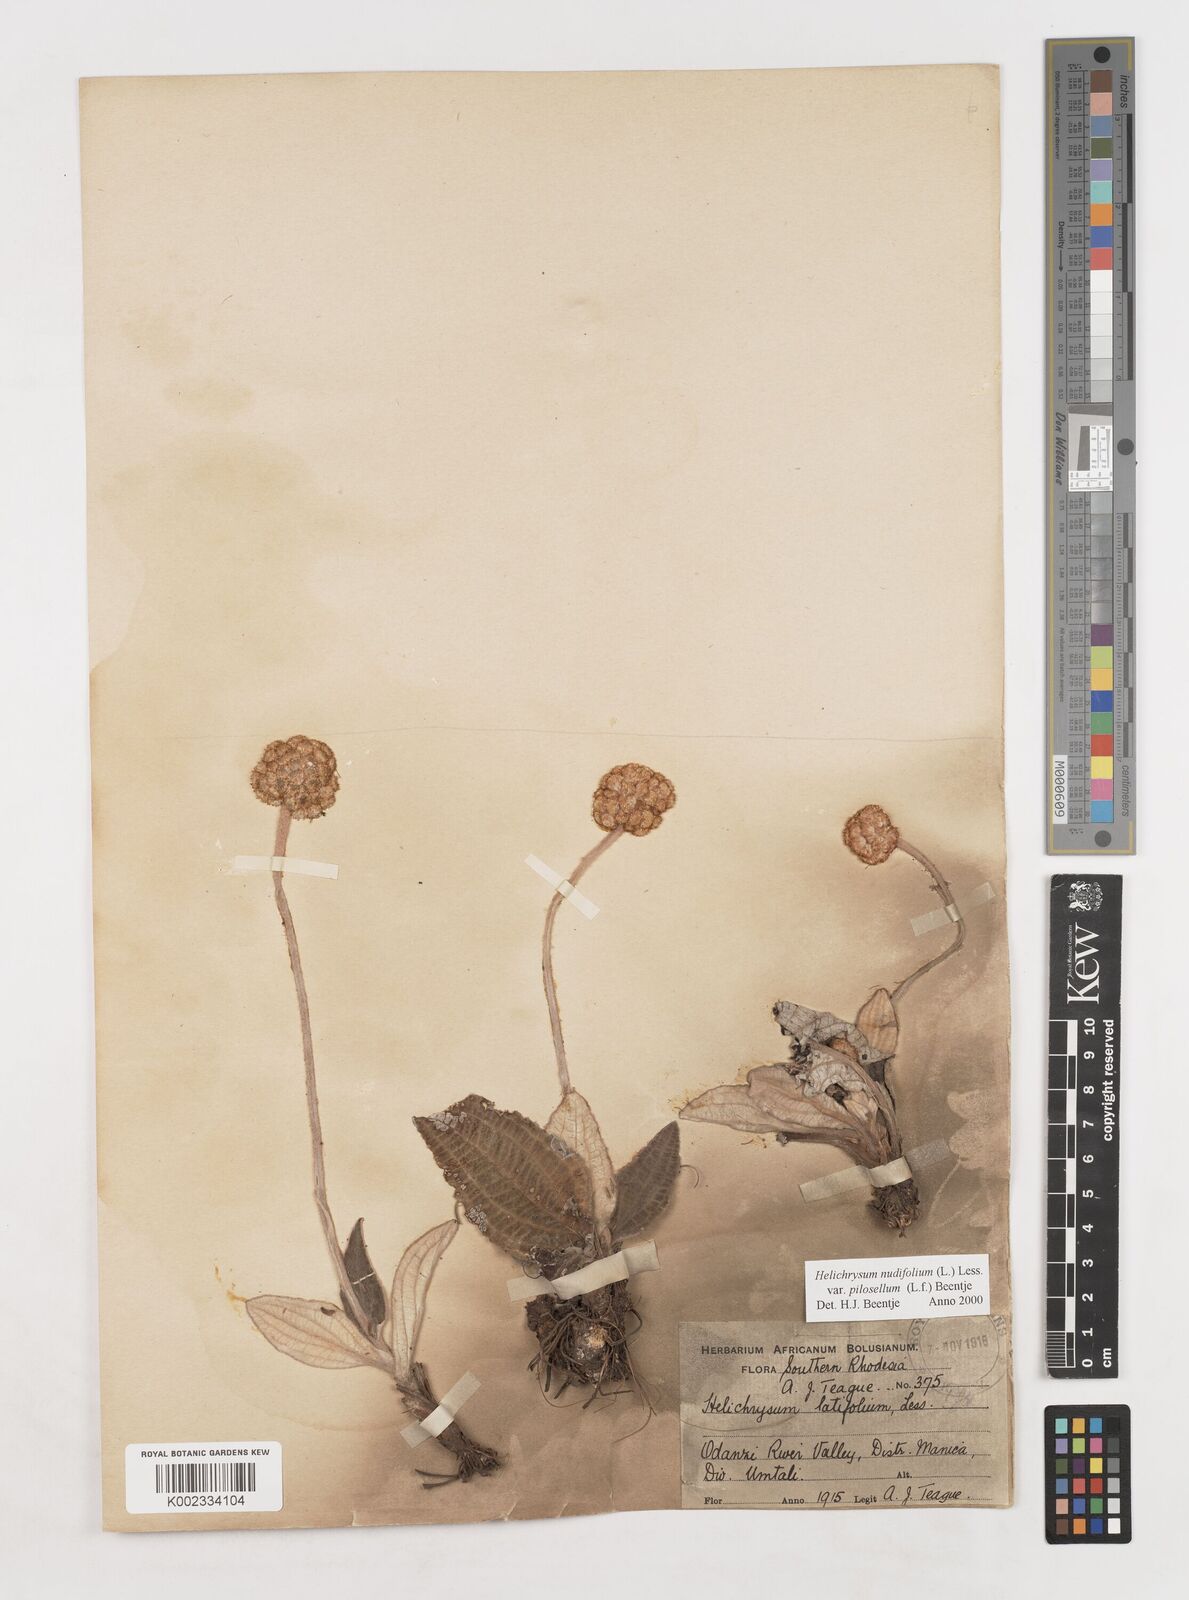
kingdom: Plantae
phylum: Tracheophyta
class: Magnoliopsida
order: Asterales
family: Asteraceae
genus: Helichrysum
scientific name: Helichrysum nudifolium
